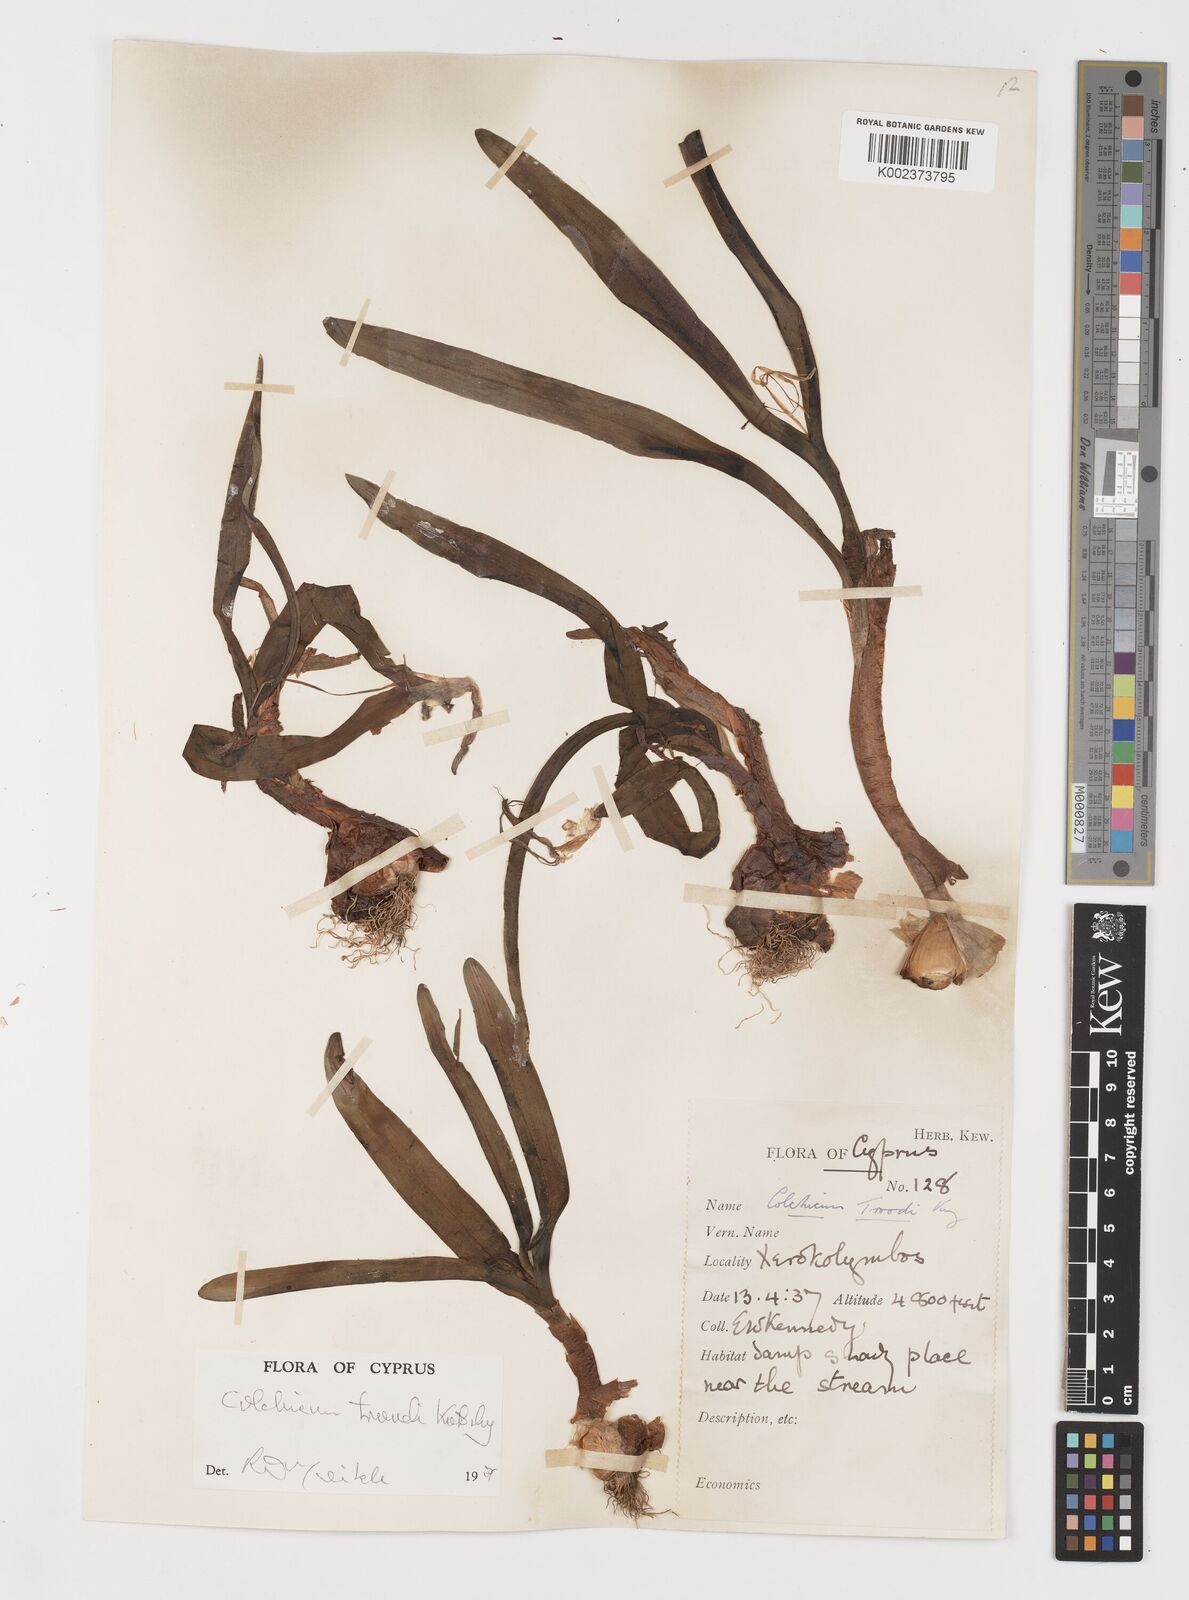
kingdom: Plantae
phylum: Tracheophyta
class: Liliopsida
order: Liliales
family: Colchicaceae
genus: Colchicum
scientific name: Colchicum troodi
